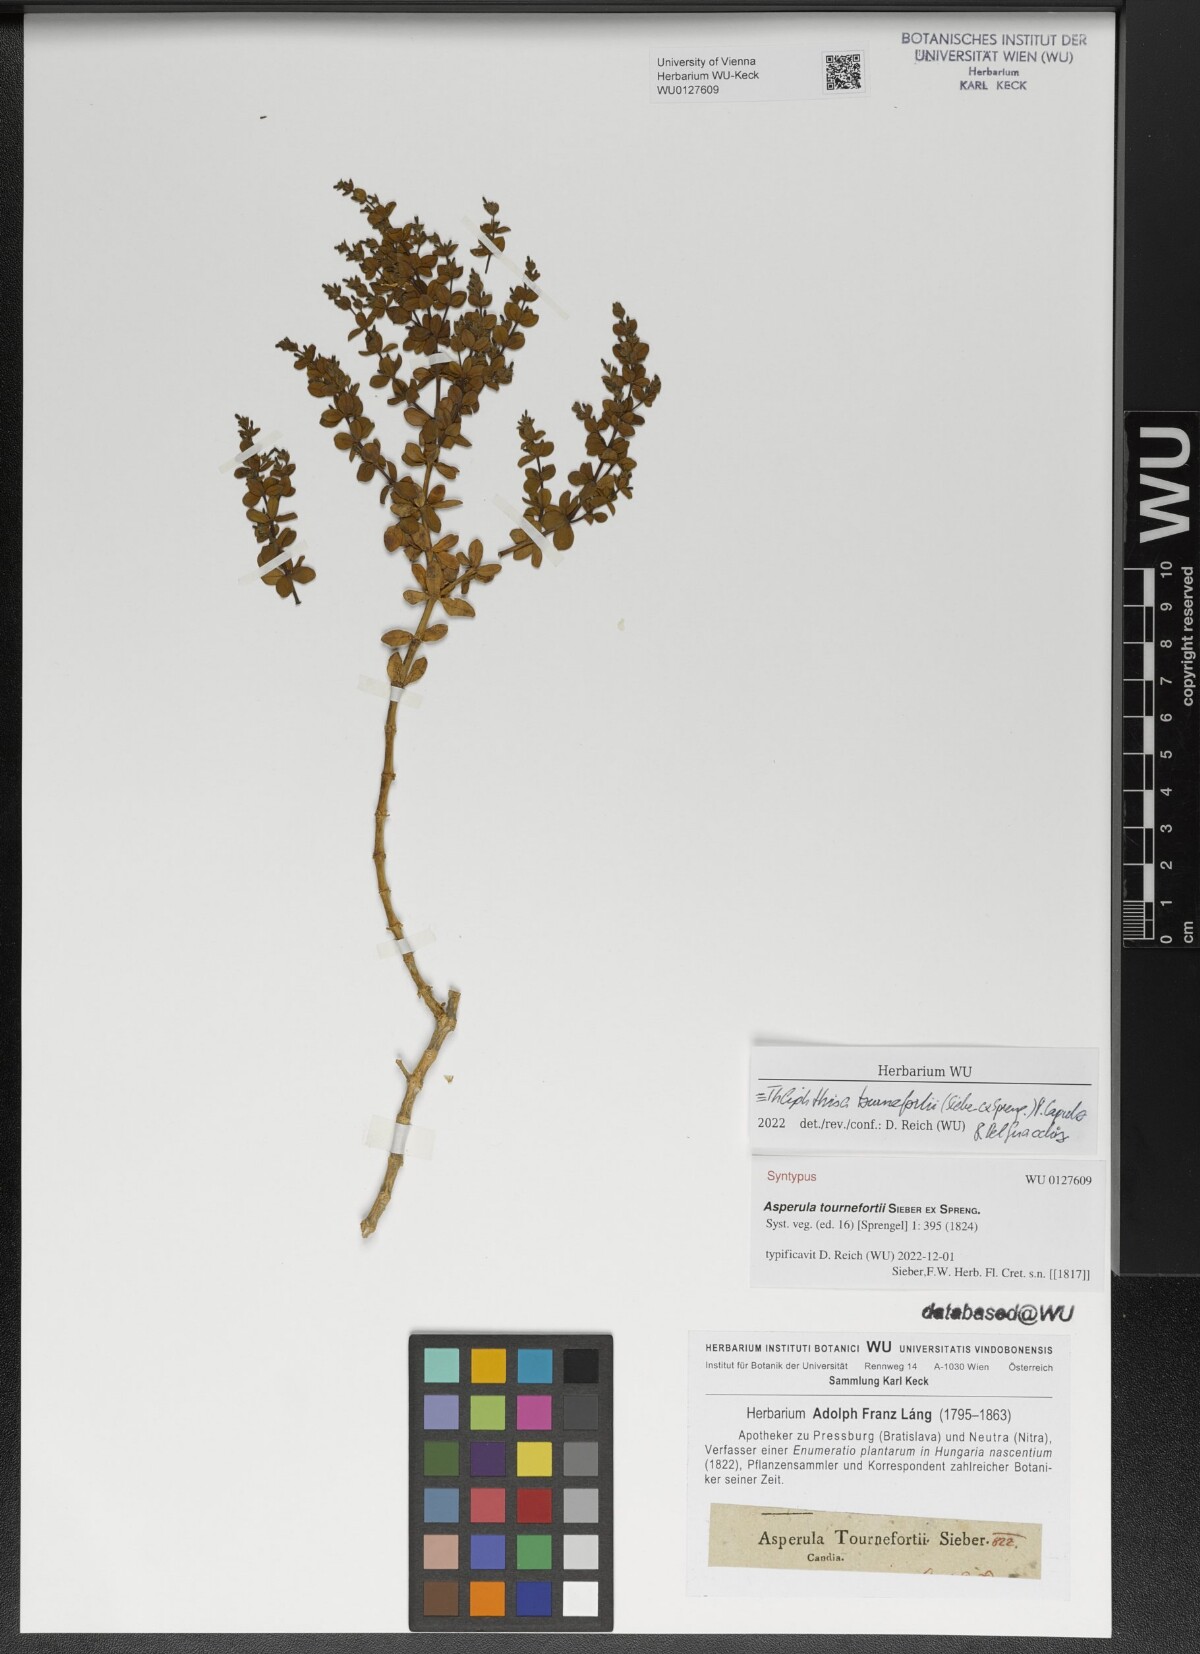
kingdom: Plantae
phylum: Tracheophyta
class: Magnoliopsida
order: Gentianales
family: Rubiaceae
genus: Asperula
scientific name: Asperula tournefortii
